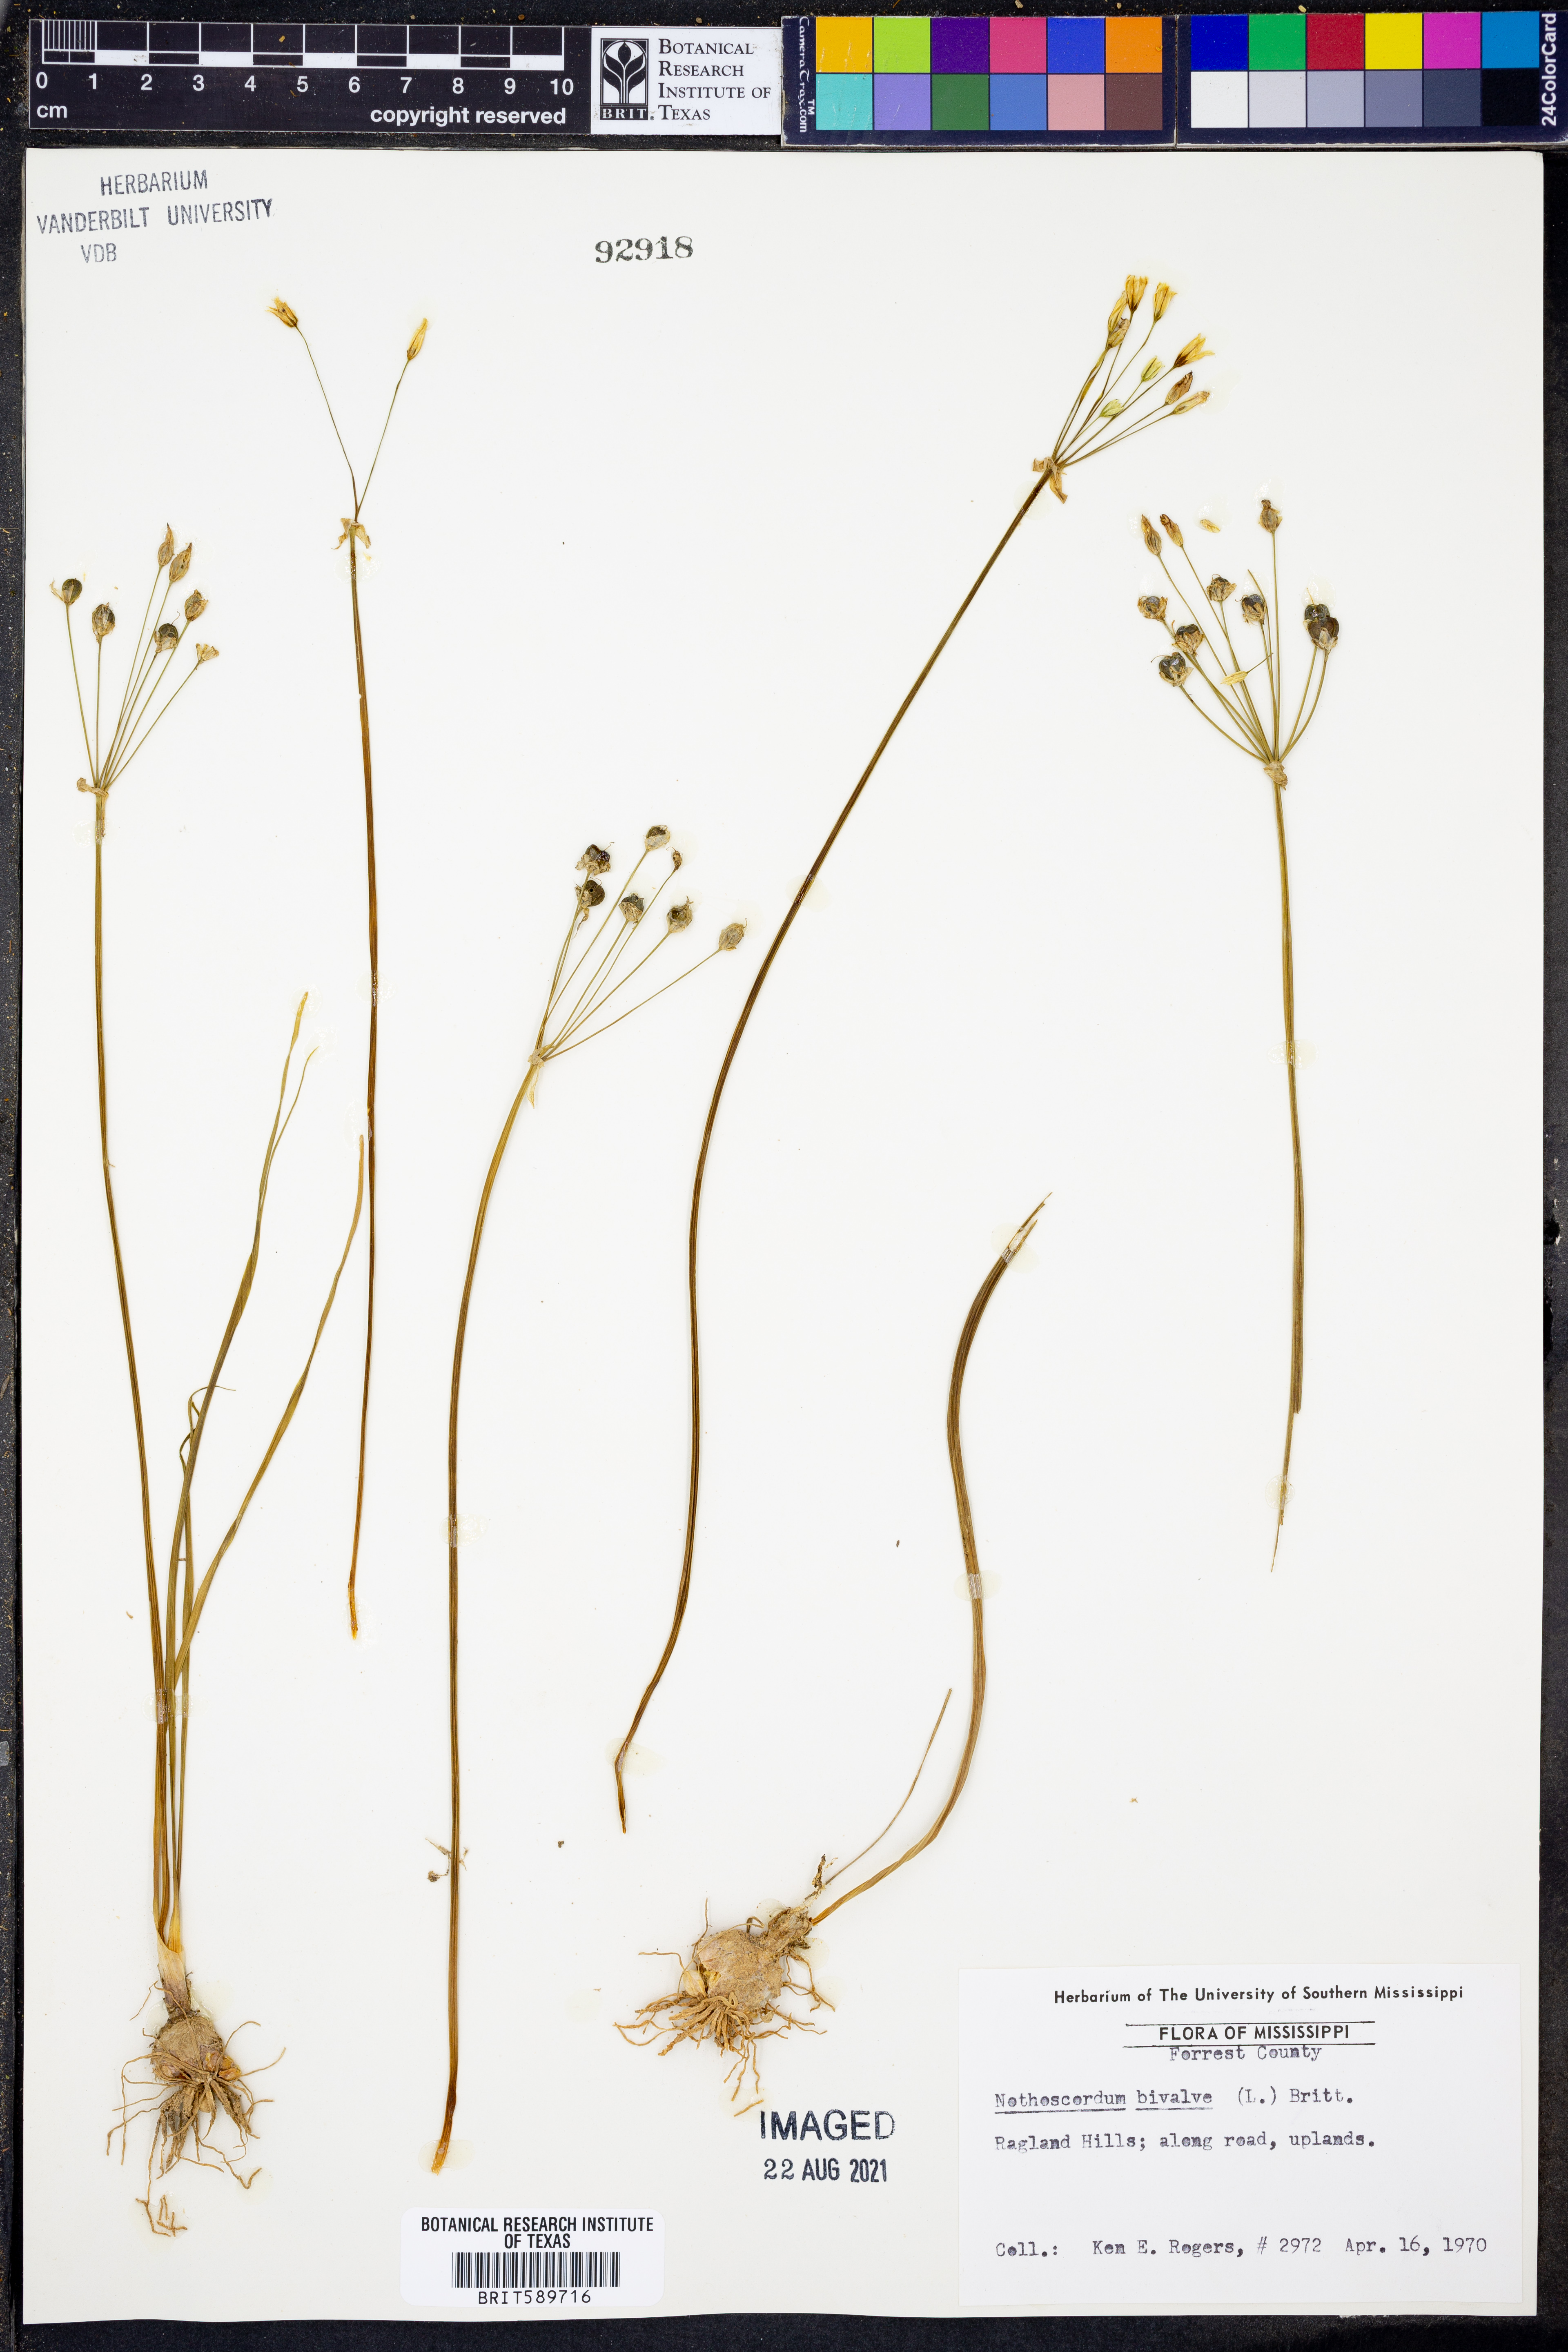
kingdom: Plantae
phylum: Tracheophyta
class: Liliopsida
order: Asparagales
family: Amaryllidaceae
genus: Nothoscordum
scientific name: Nothoscordum bivalve
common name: Crow-poison
